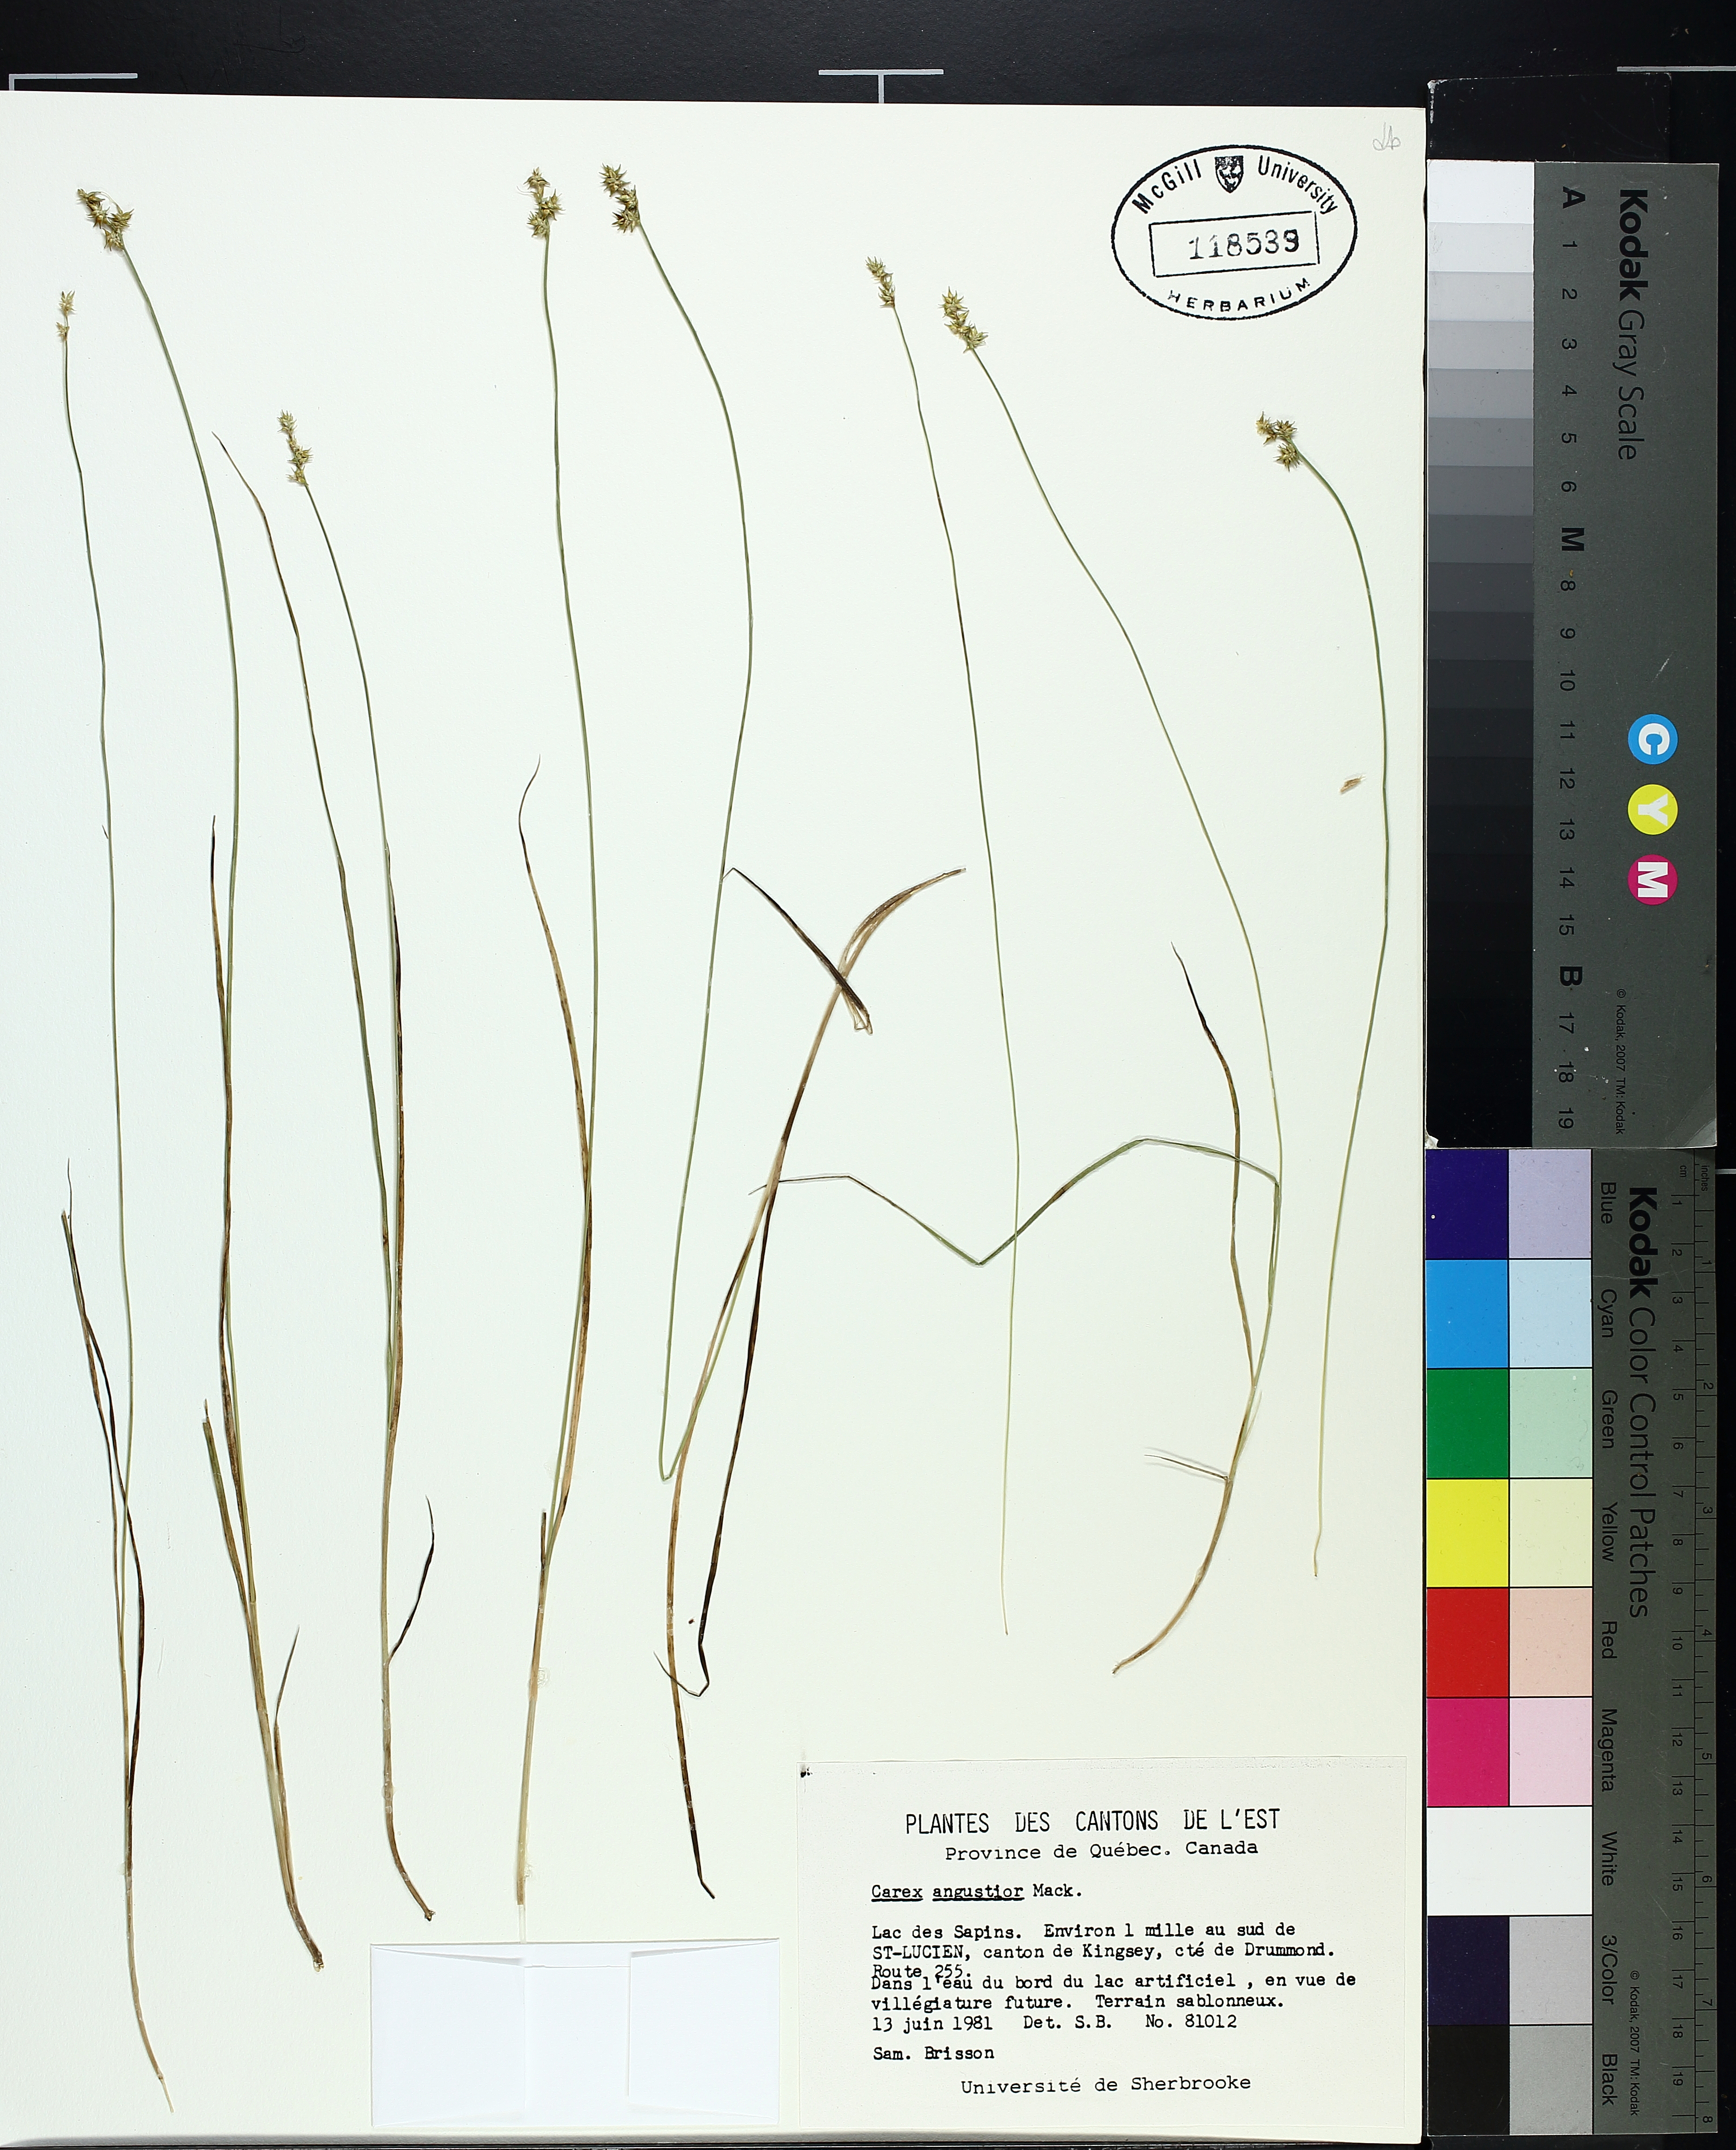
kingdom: Plantae
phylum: Tracheophyta
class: Liliopsida
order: Poales
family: Cyperaceae
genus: Carex
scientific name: Carex echinata
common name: Star sedge
